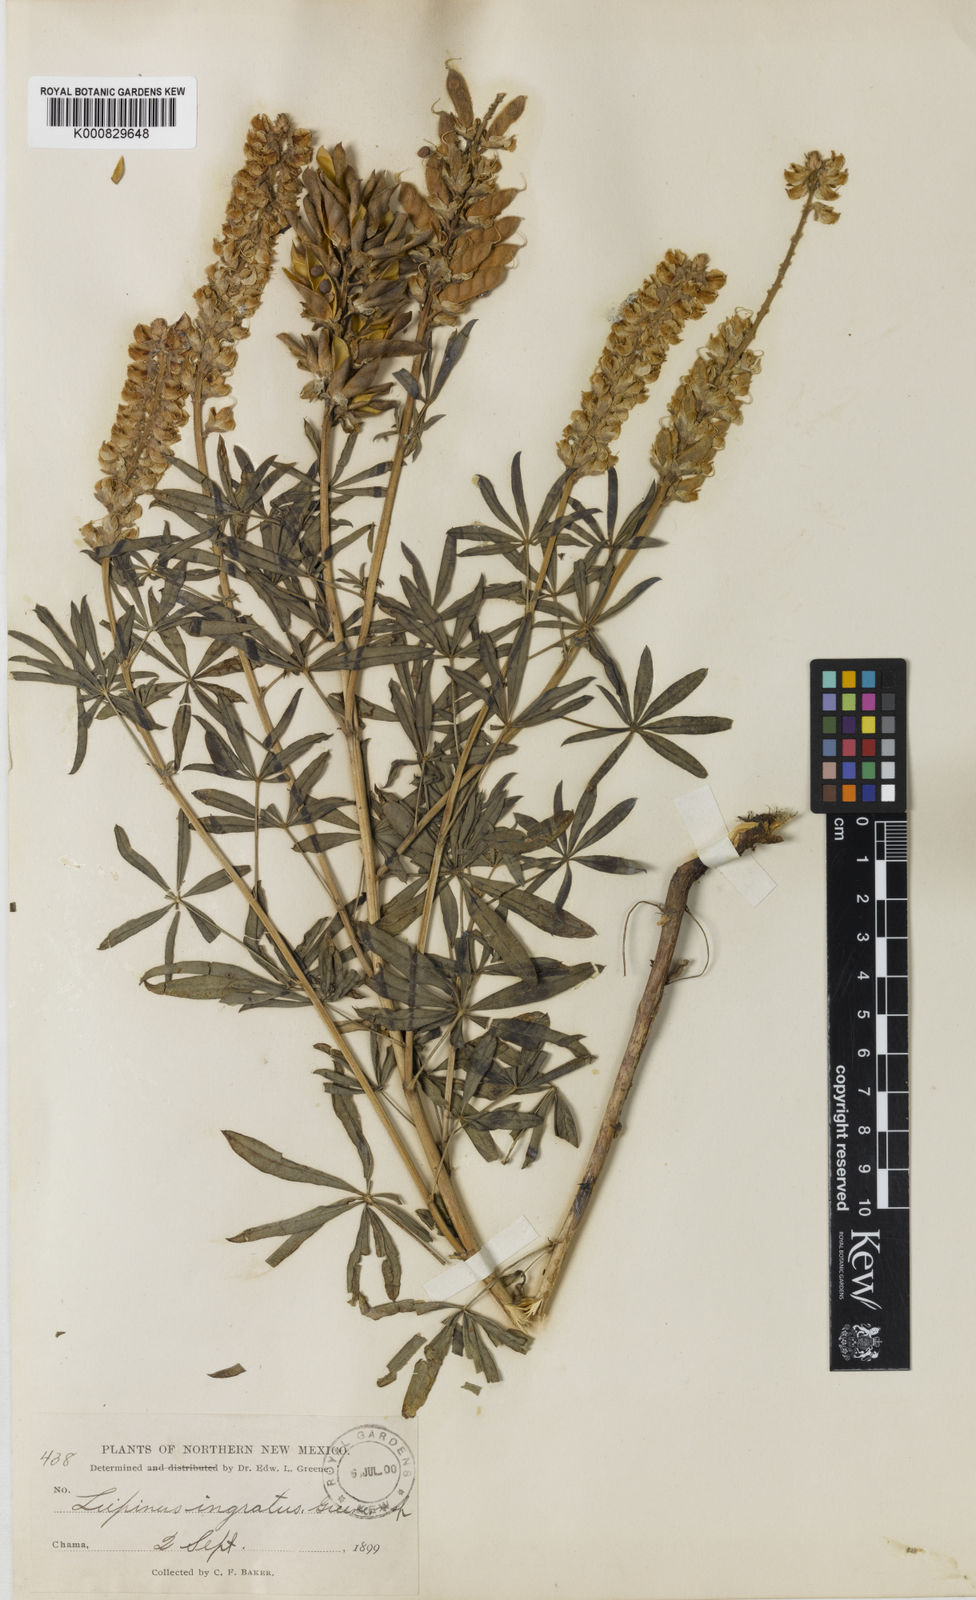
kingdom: Plantae
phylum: Tracheophyta
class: Magnoliopsida
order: Fabales
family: Fabaceae
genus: Lupinus
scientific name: Lupinus argenteus
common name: Silvery lupine
